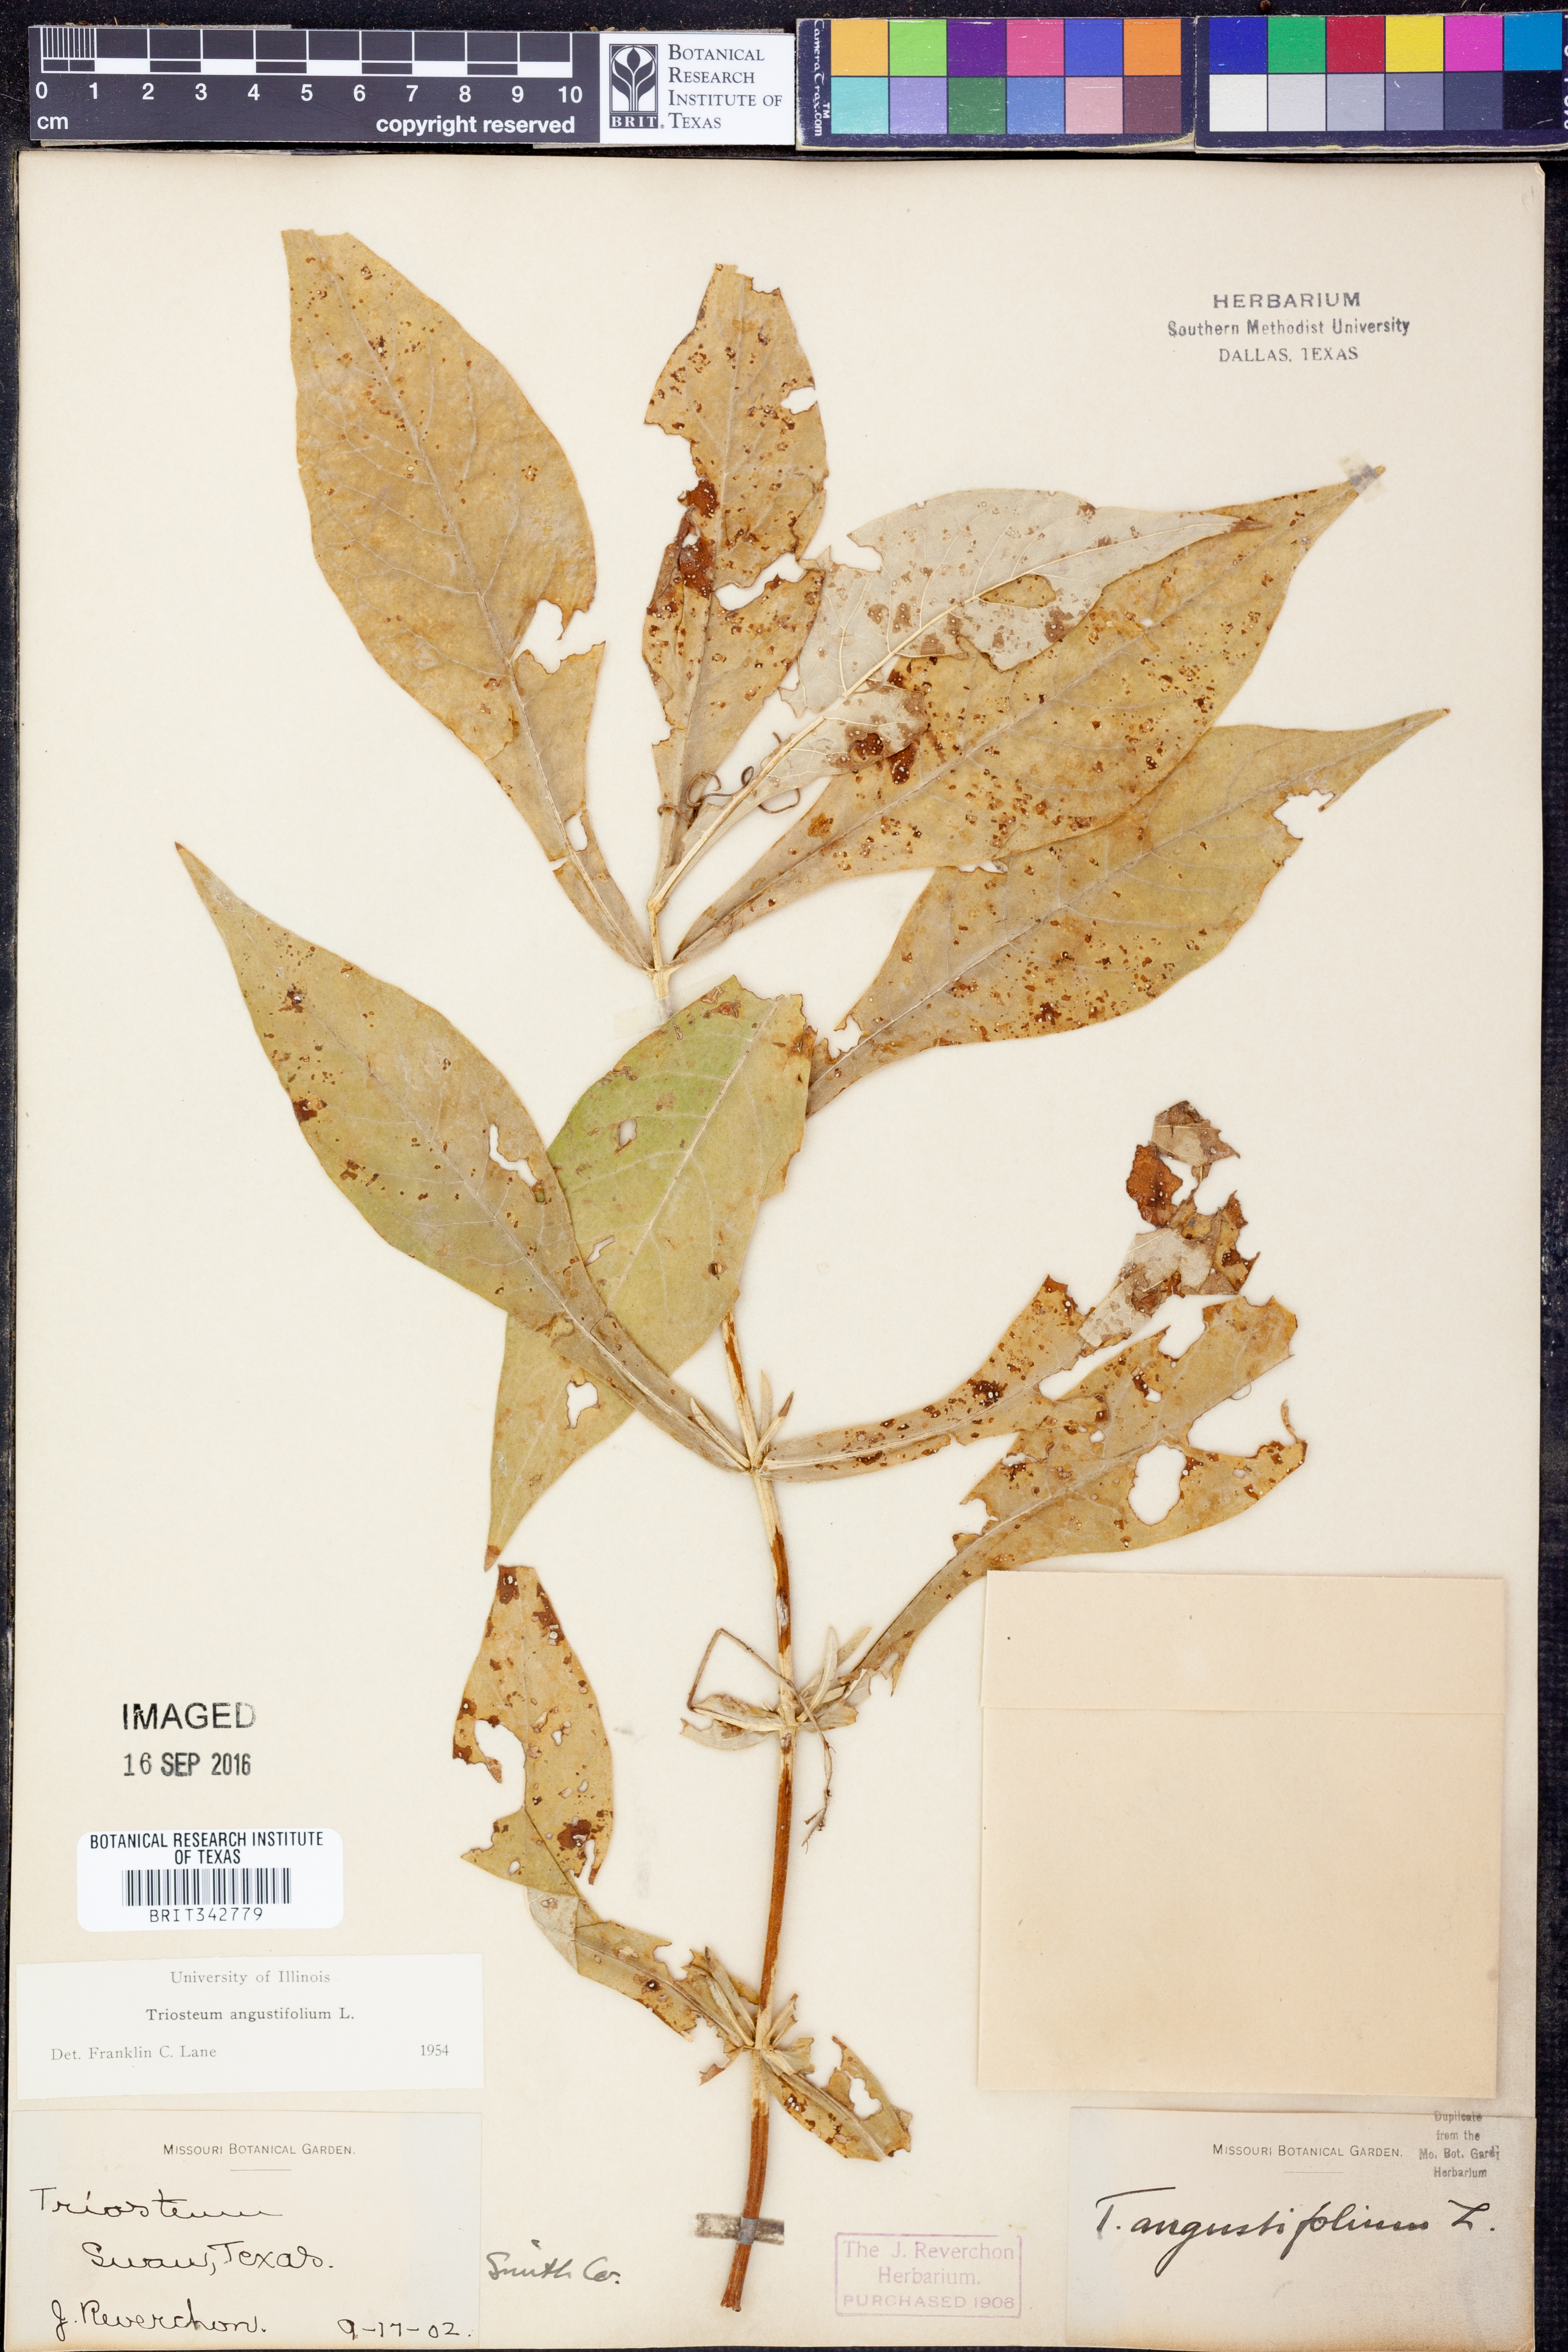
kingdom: Plantae
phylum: Tracheophyta
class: Magnoliopsida
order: Dipsacales
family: Caprifoliaceae
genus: Triosteum
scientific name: Triosteum angustifolium
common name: Narrow-leaved horse-gentian
